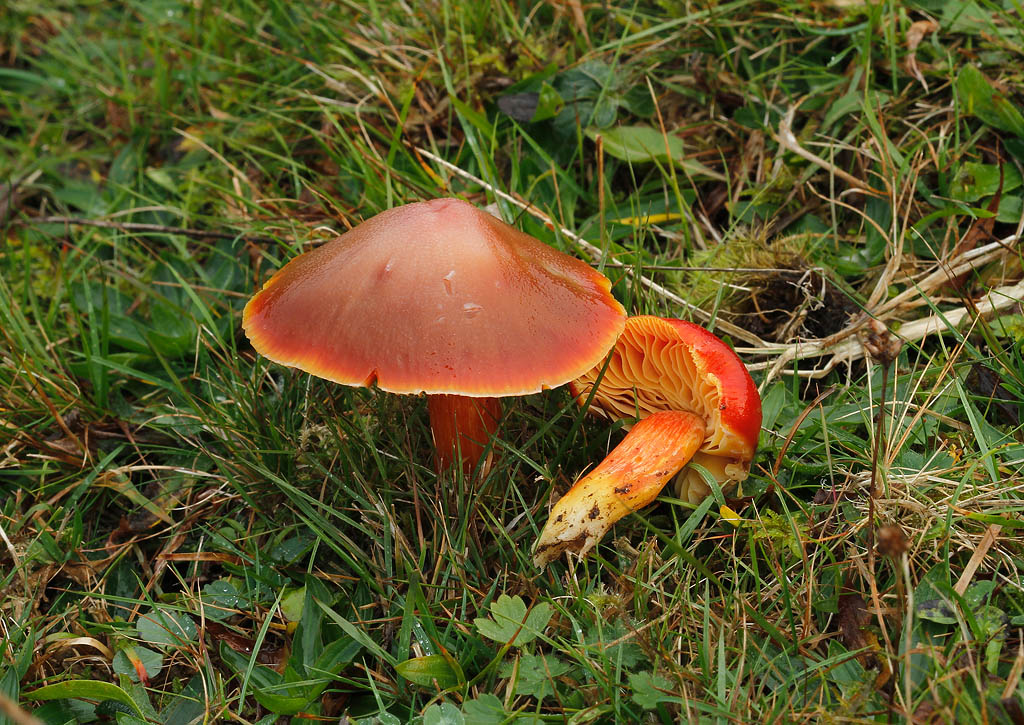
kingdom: Fungi
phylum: Basidiomycota
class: Agaricomycetes
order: Agaricales
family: Hygrophoraceae
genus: Hygrocybe
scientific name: Hygrocybe punicea
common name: skarlagen-vokshat
